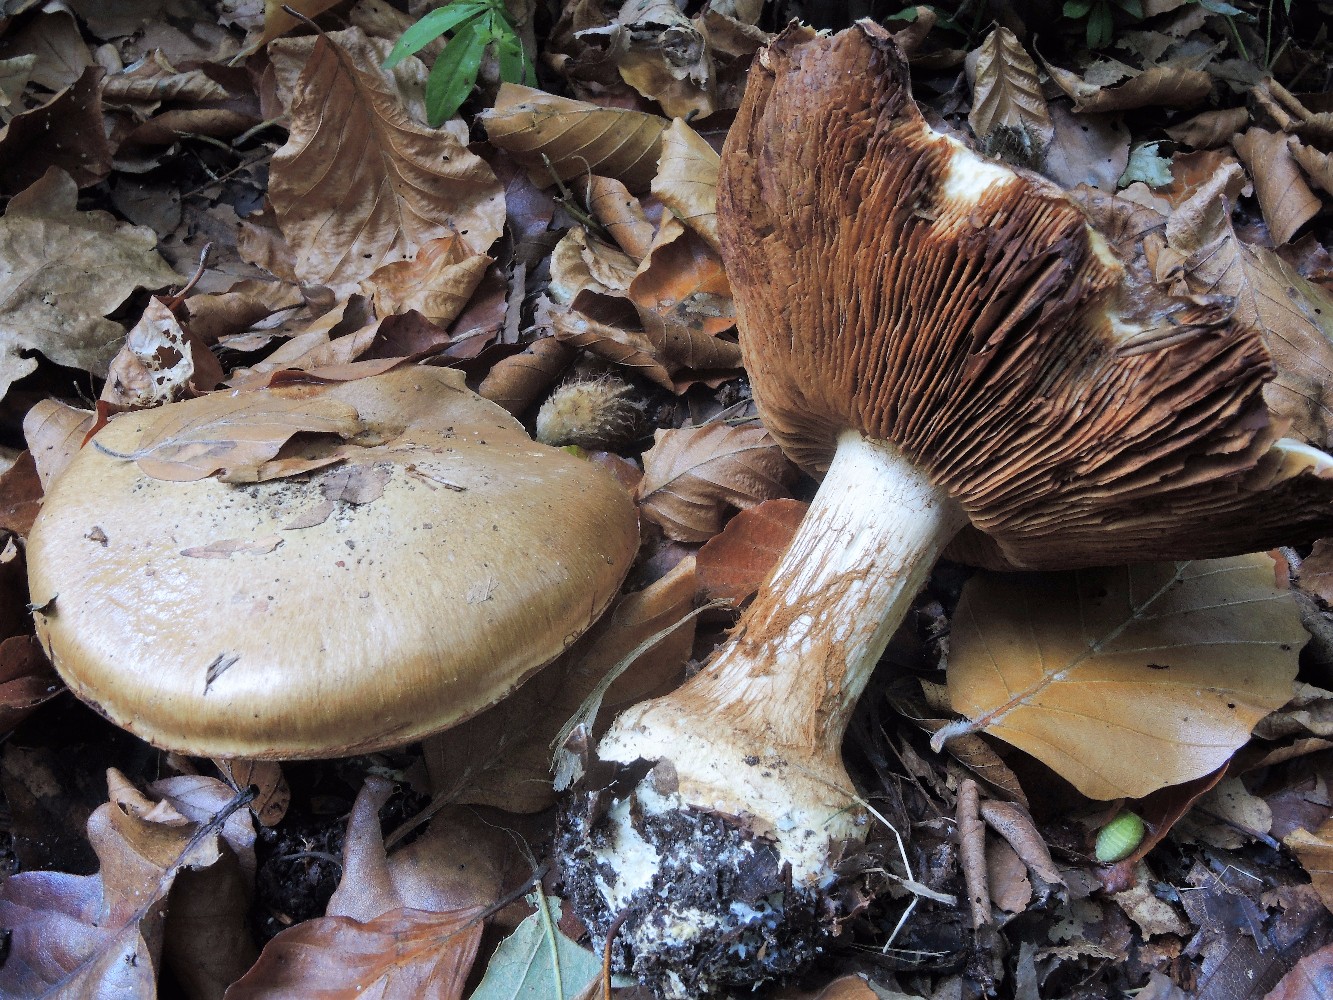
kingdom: Fungi
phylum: Basidiomycota
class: Agaricomycetes
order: Agaricales
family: Cortinariaceae
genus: Cortinarius
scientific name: Cortinarius anserinus
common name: bøge-slørhat
